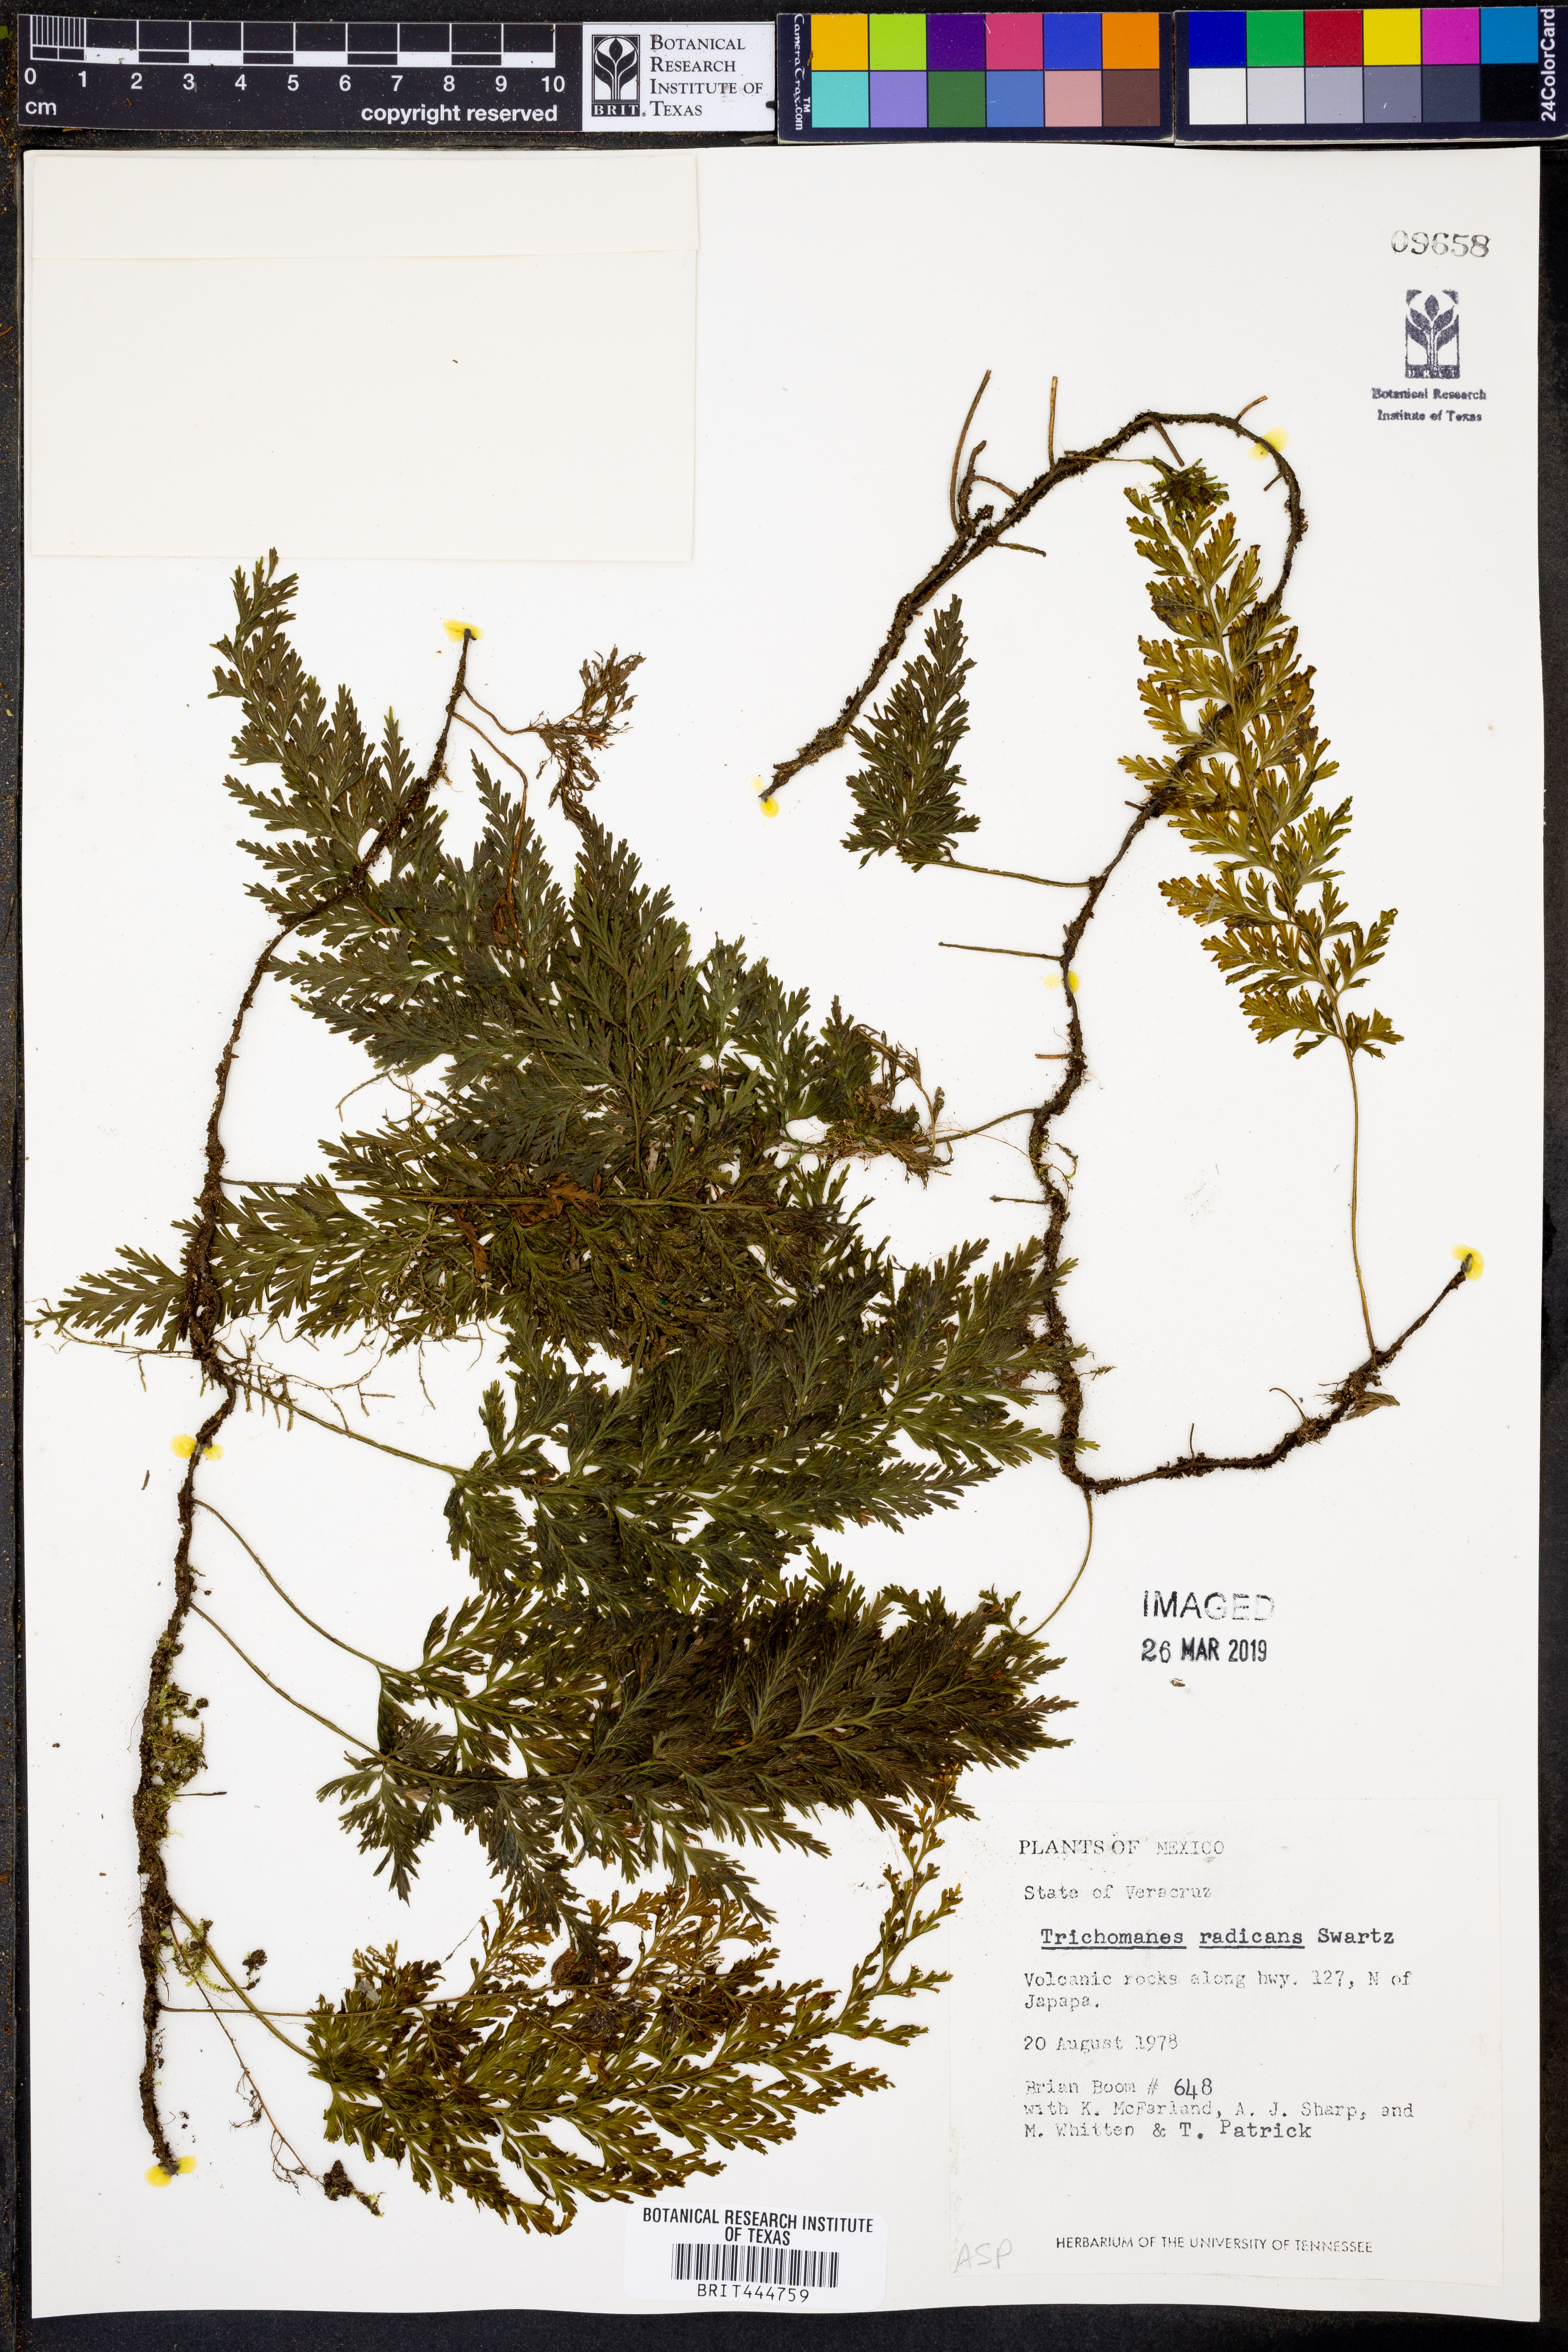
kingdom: Plantae
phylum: Tracheophyta
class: Polypodiopsida
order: Hymenophyllales
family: Hymenophyllaceae
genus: Vandenboschia
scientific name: Vandenboschia radicans
